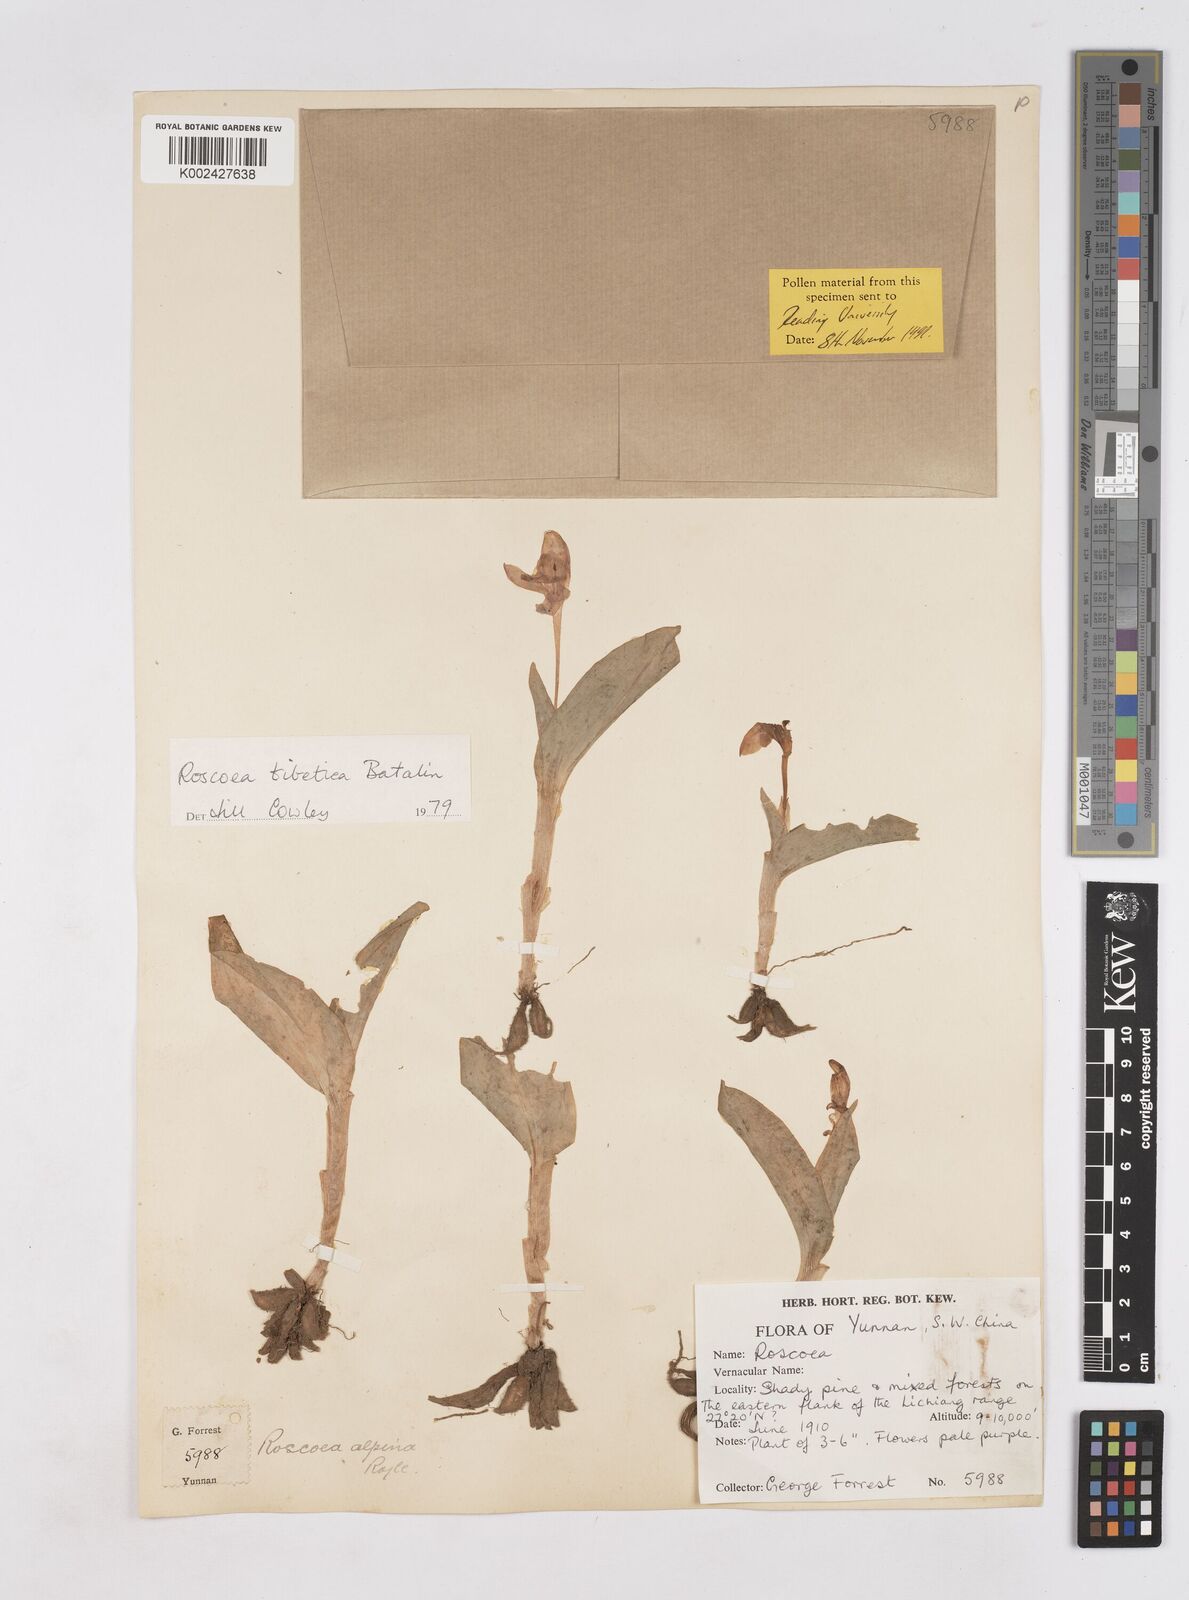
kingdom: Plantae
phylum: Tracheophyta
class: Liliopsida
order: Zingiberales
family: Zingiberaceae
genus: Roscoea
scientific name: Roscoea tibetica
